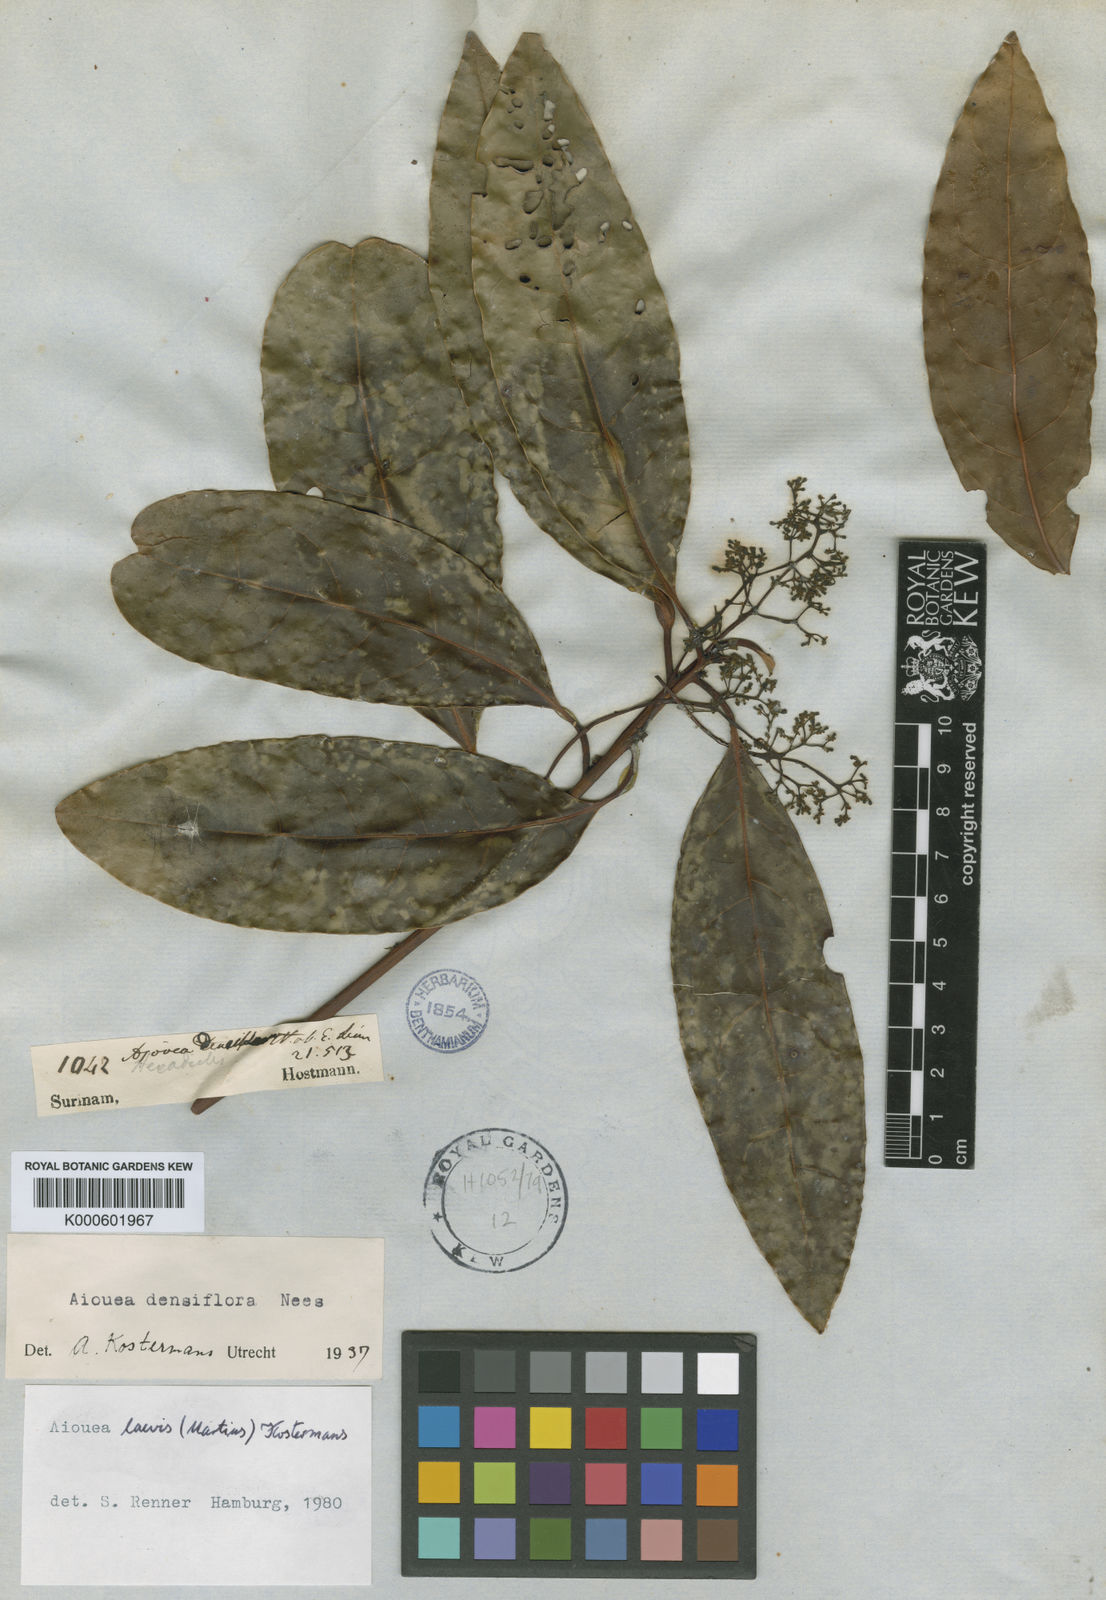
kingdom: Plantae
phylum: Tracheophyta
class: Magnoliopsida
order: Laurales
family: Lauraceae
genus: Aiouea
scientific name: Aiouea laevis
